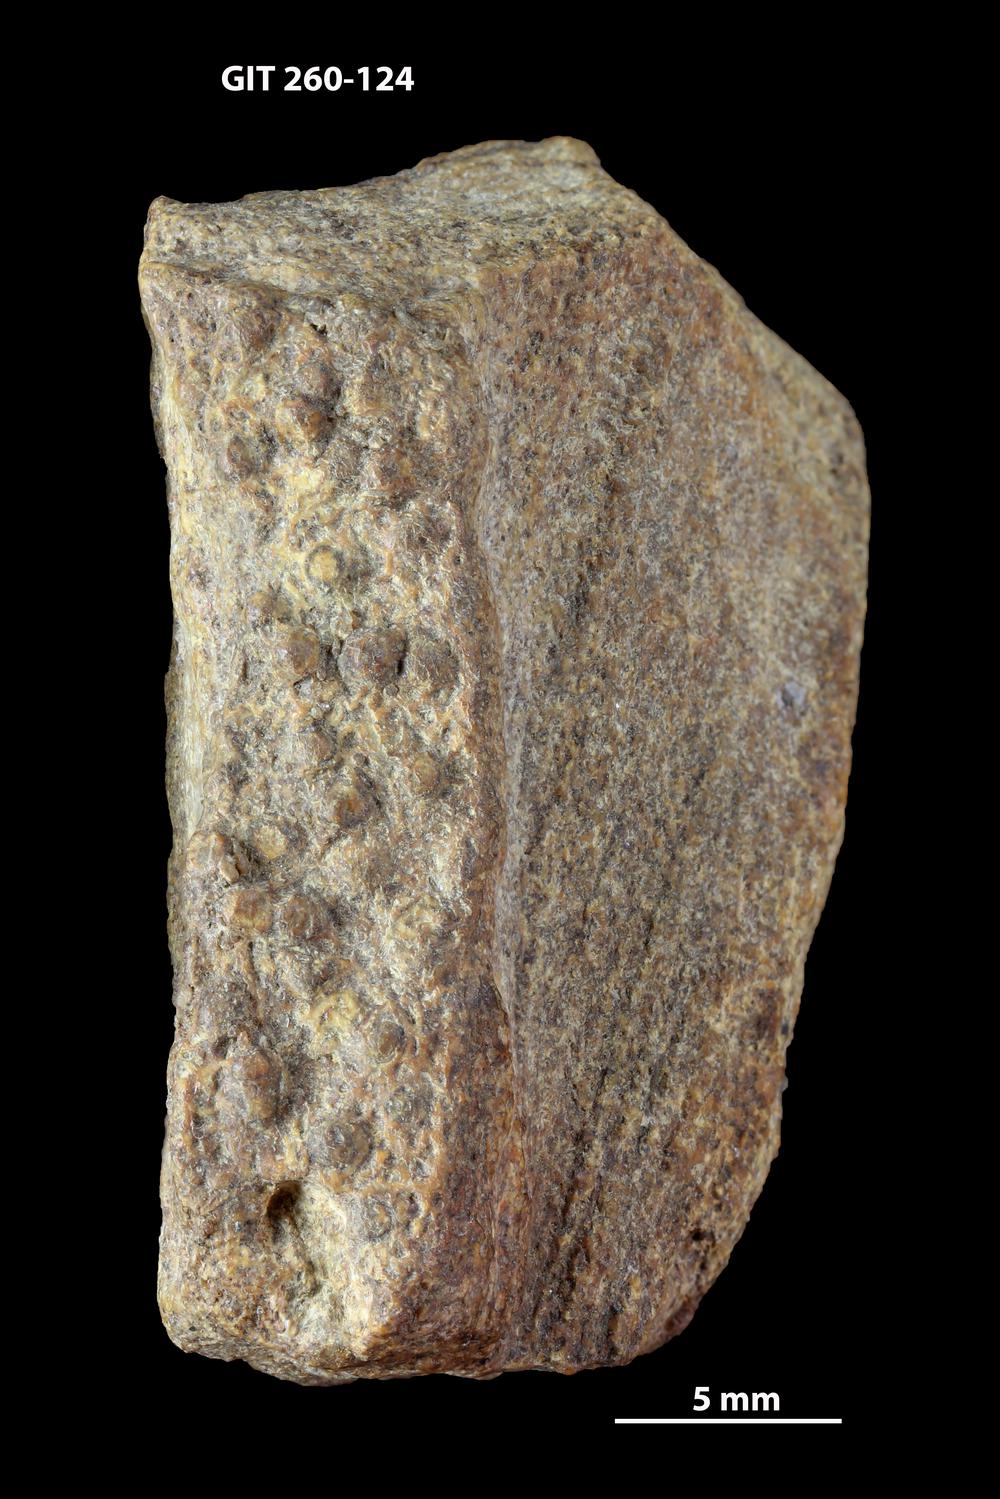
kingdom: Animalia
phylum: Chordata
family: Homostiidae
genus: Homostius
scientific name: Homostius
